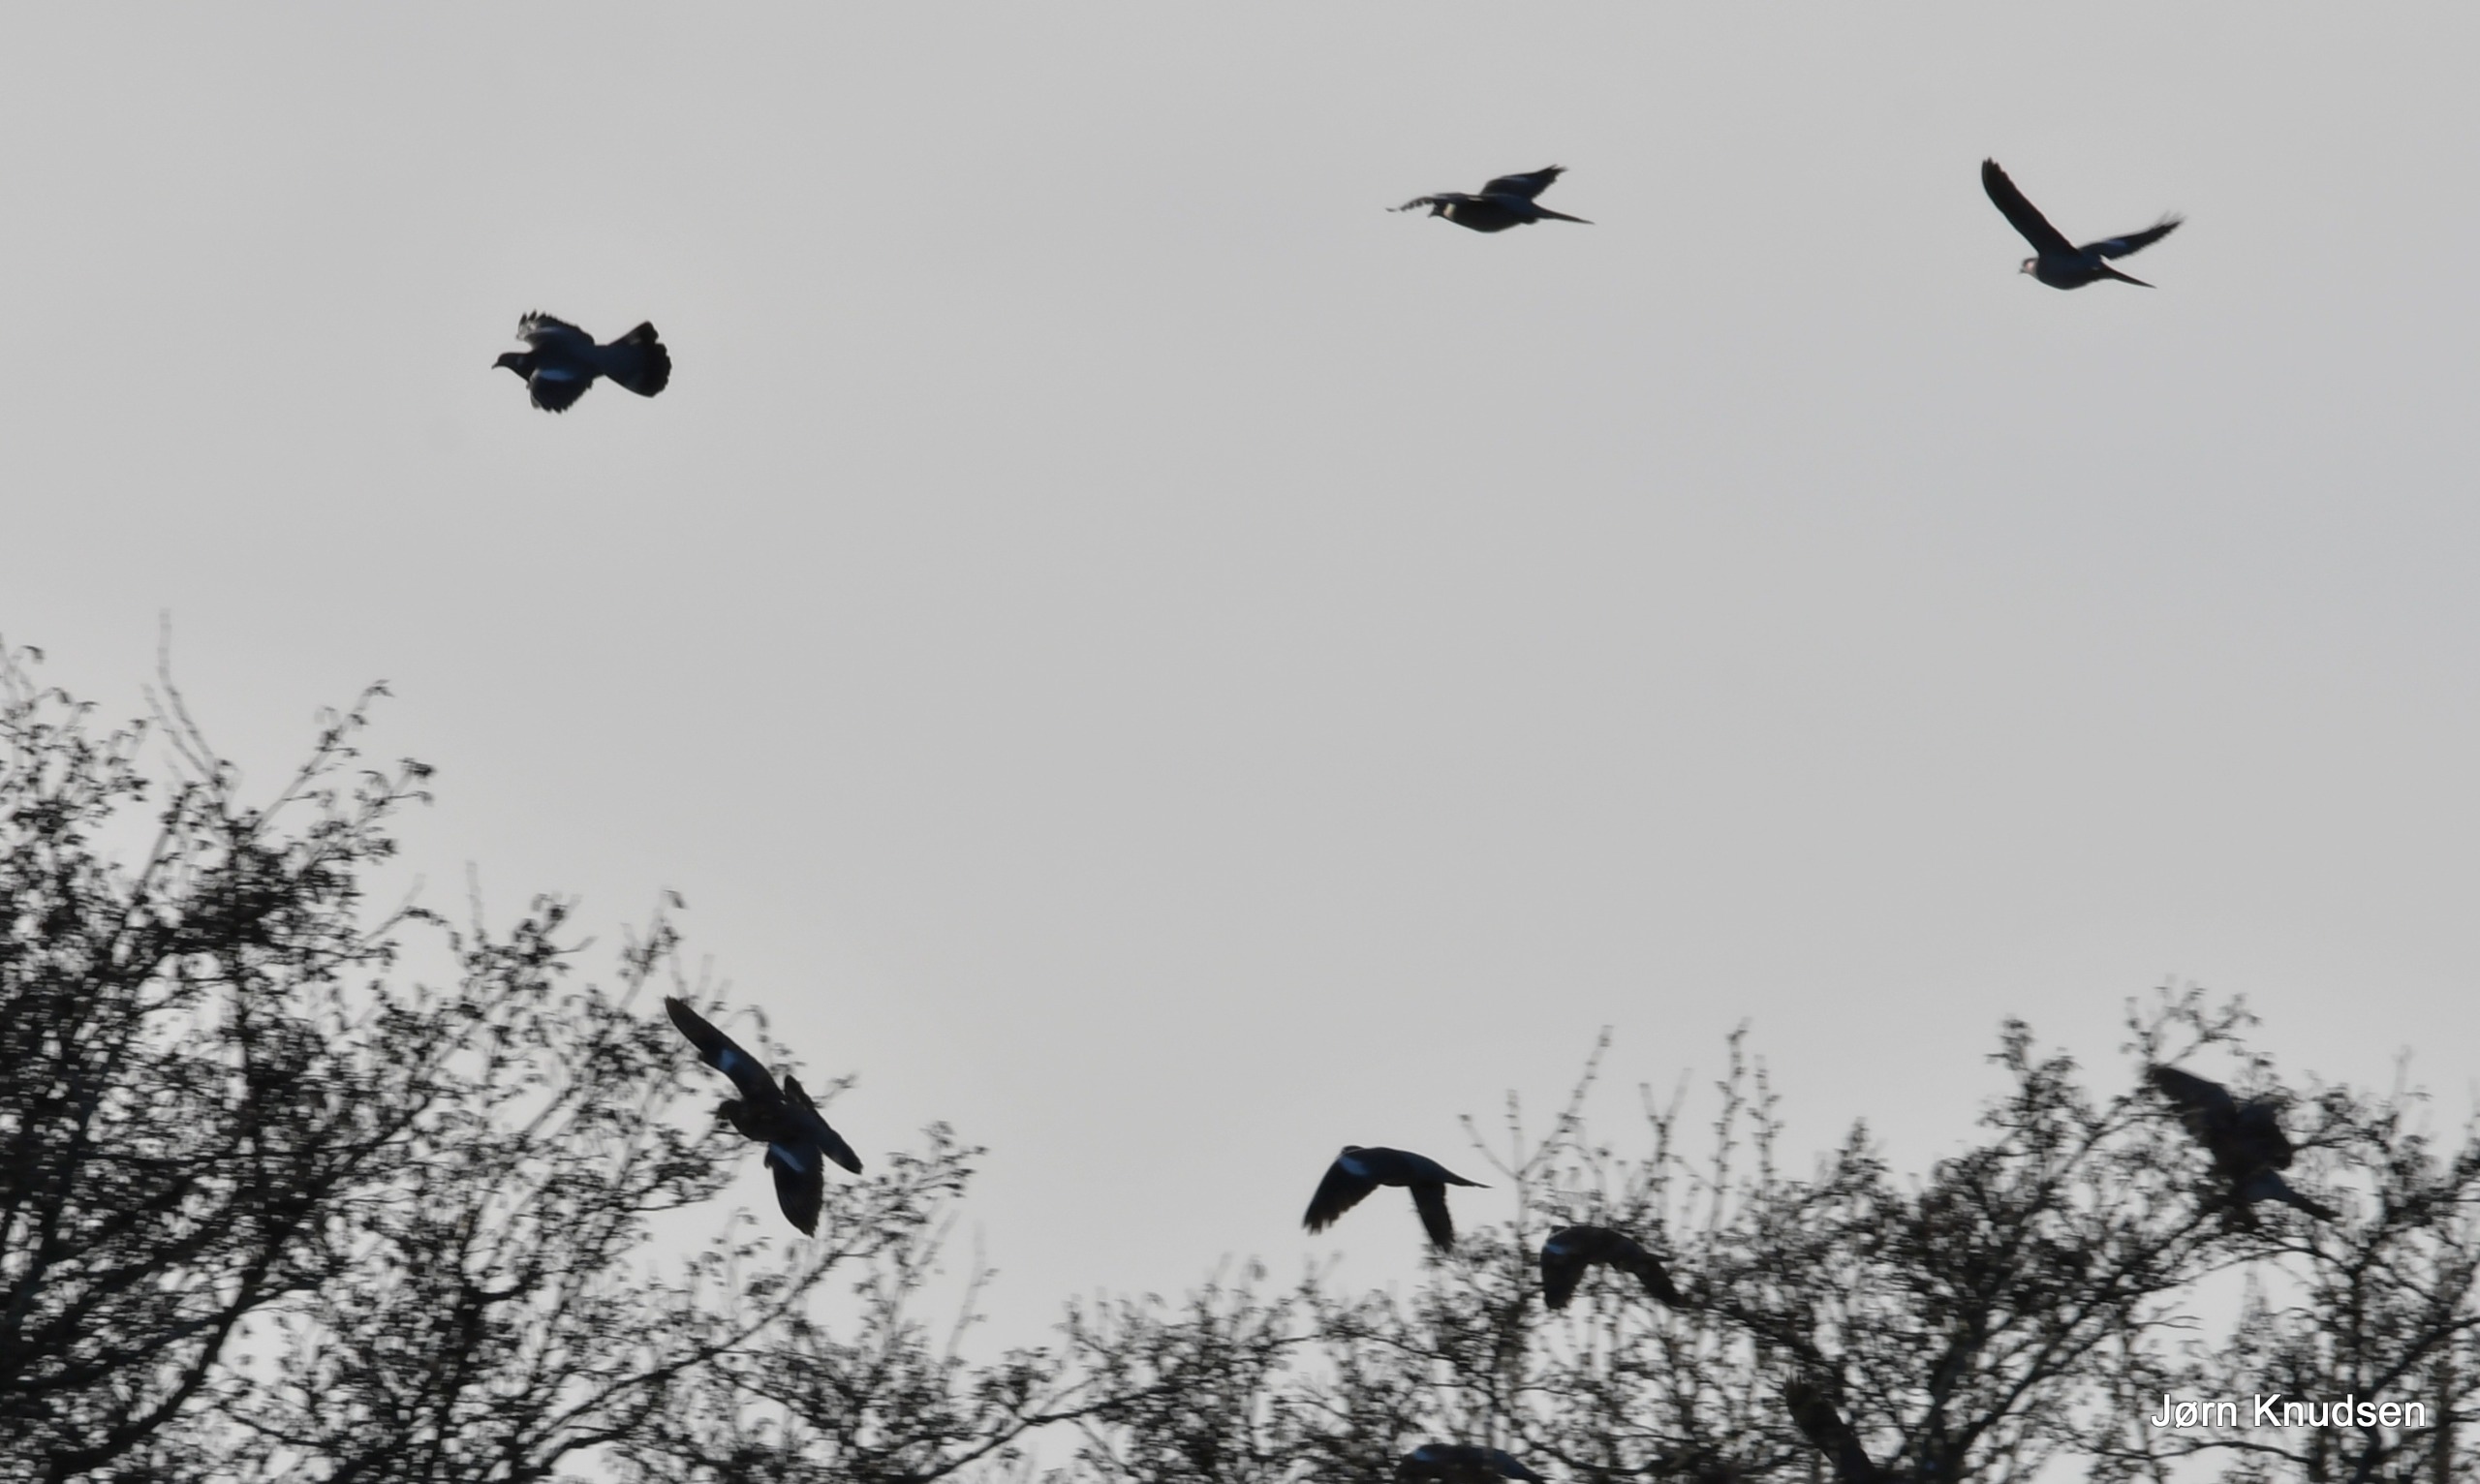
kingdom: Animalia
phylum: Chordata
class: Aves
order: Columbiformes
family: Columbidae
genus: Columba
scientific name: Columba palumbus
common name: Ringdue
